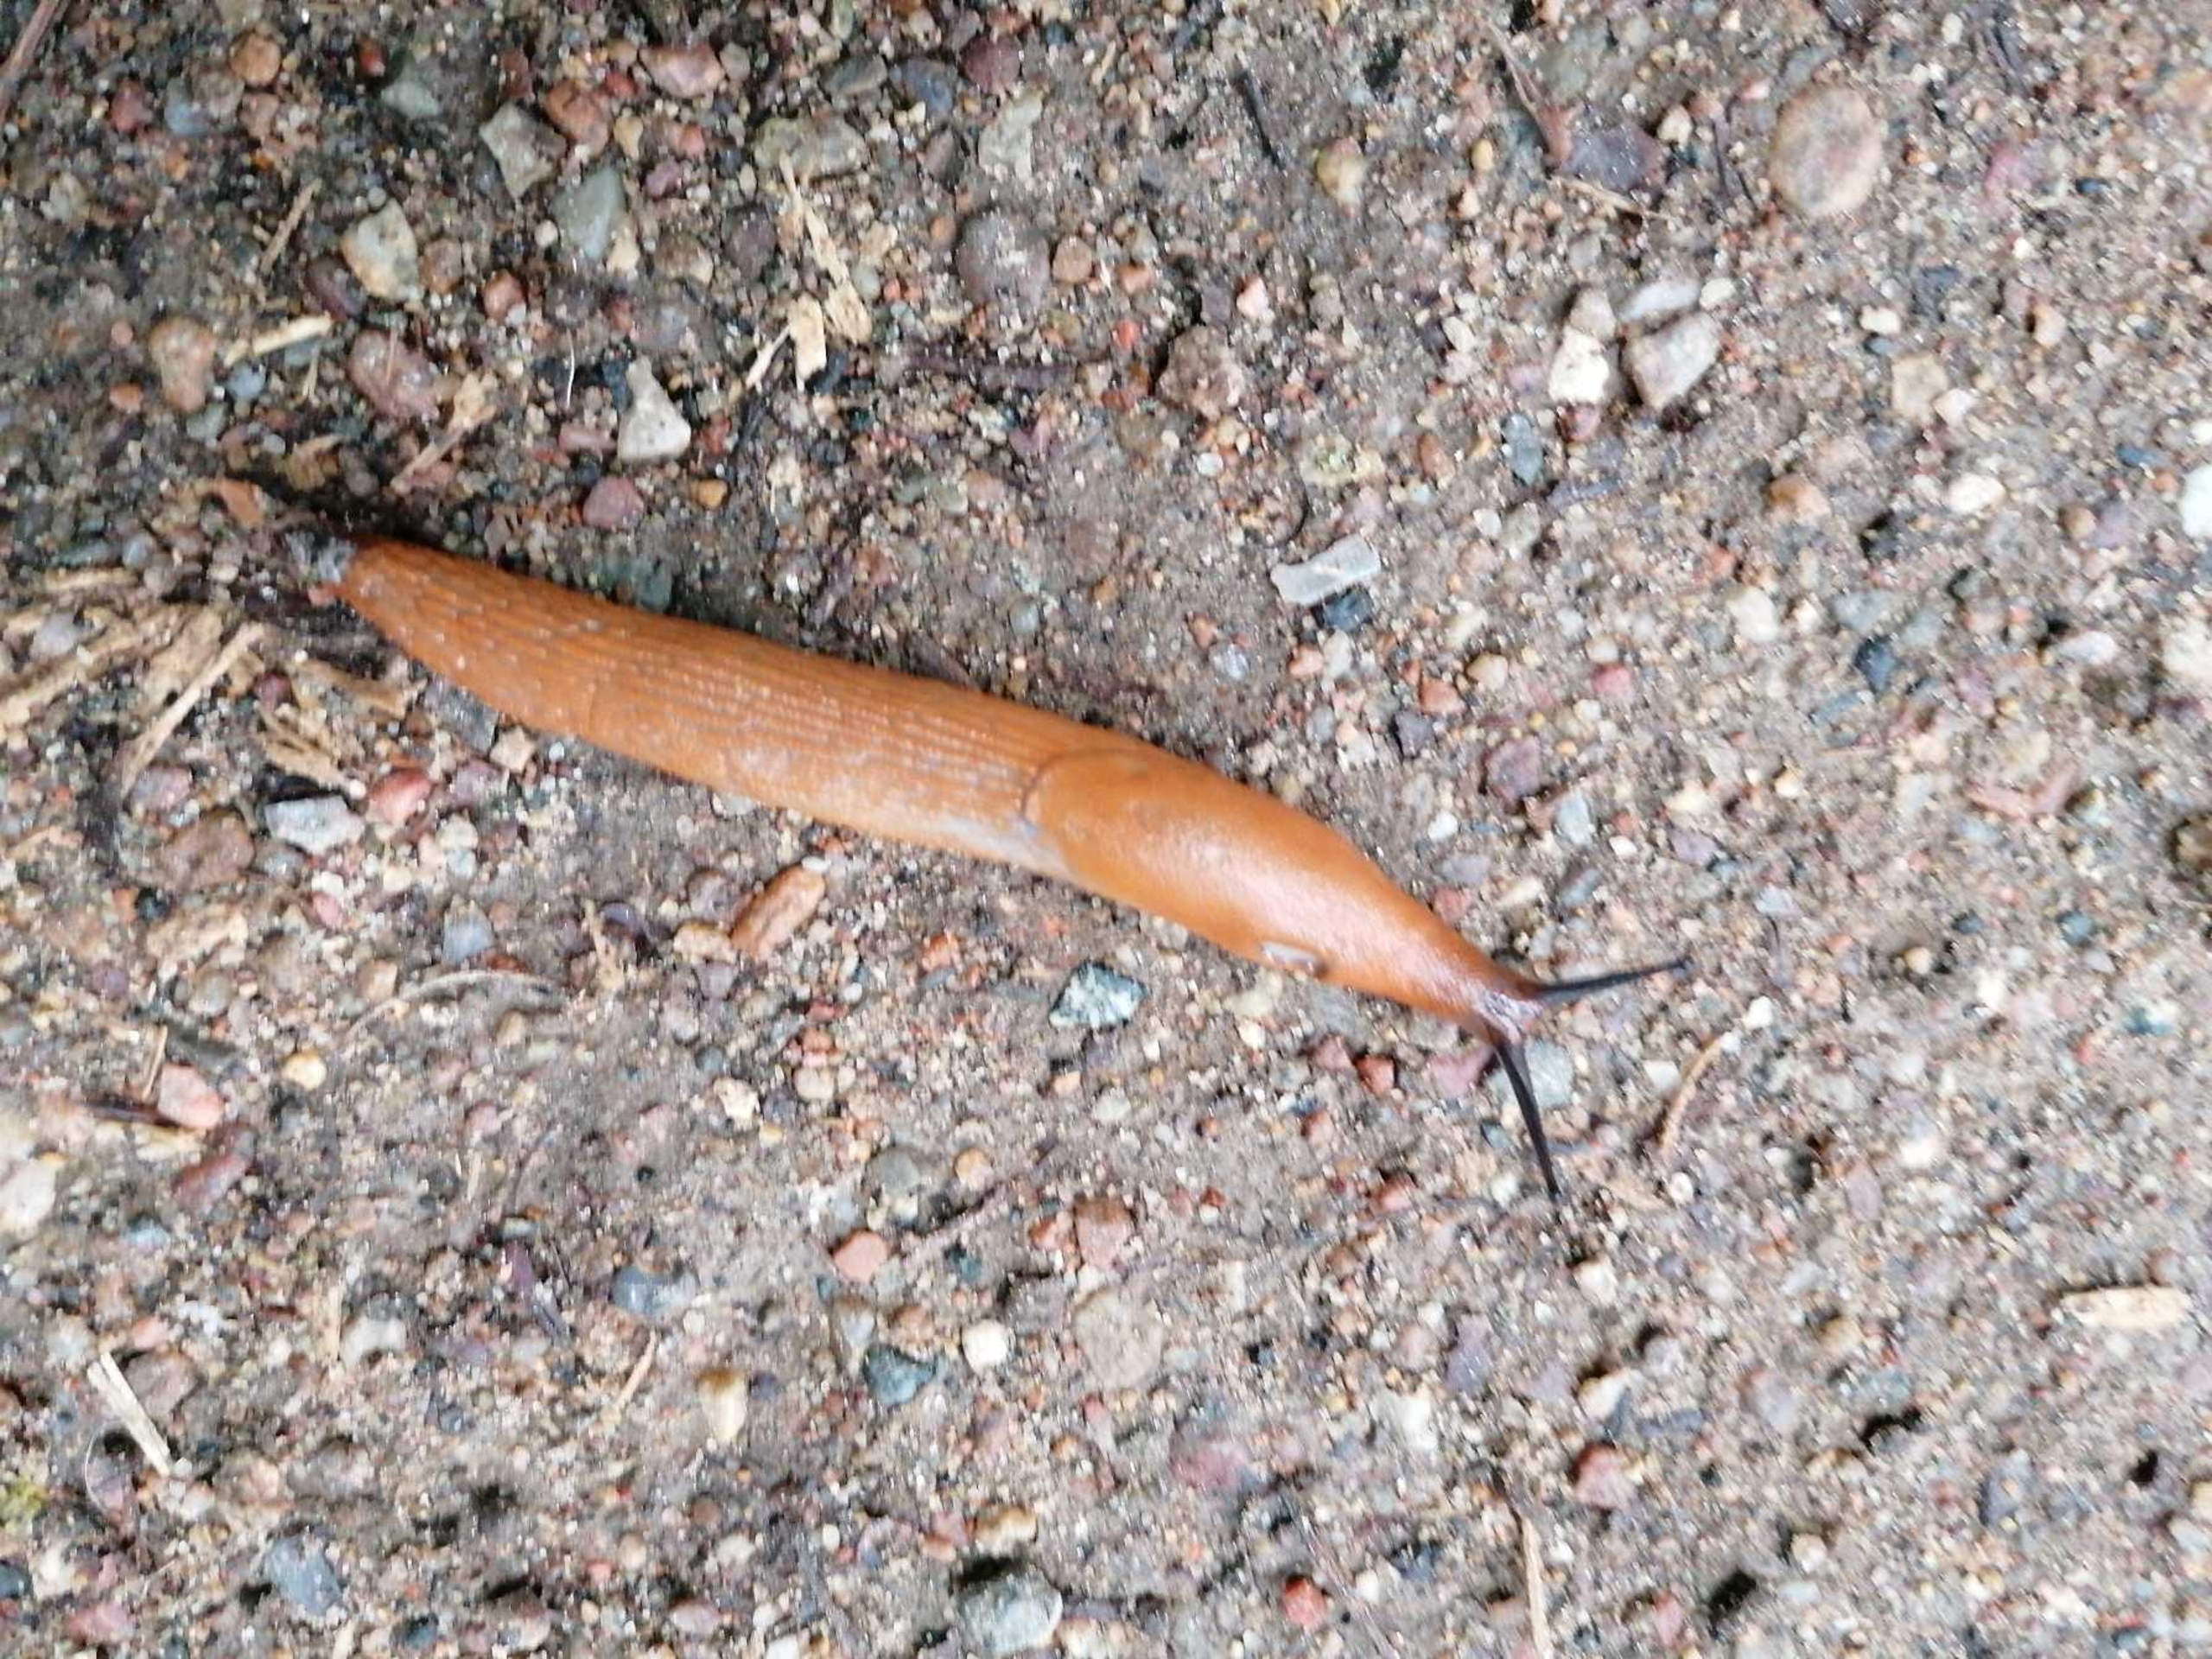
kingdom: Animalia
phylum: Mollusca
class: Gastropoda
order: Stylommatophora
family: Arionidae
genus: Arion
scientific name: Arion vulgaris
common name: Iberisk skovsnegl
